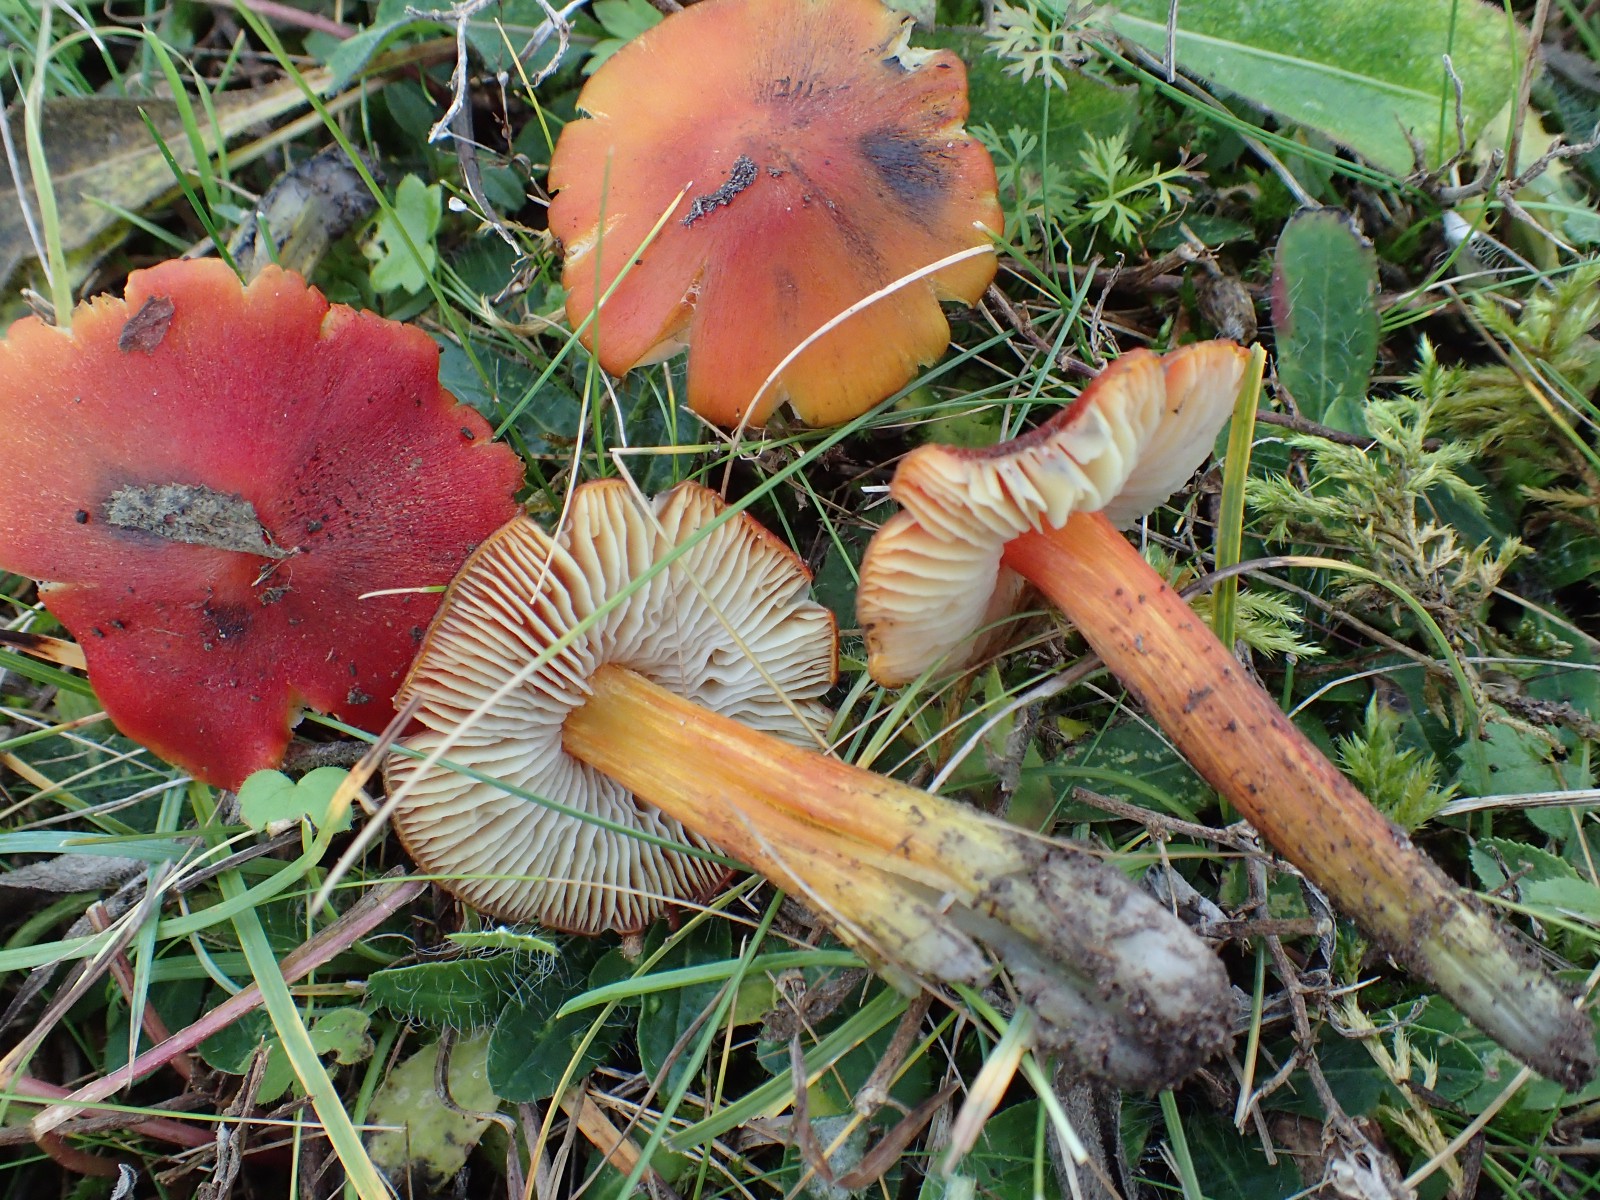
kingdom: Fungi
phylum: Basidiomycota
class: Agaricomycetes
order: Agaricales
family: Hygrophoraceae
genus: Hygrocybe
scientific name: Hygrocybe conica
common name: kegle-vokshat
